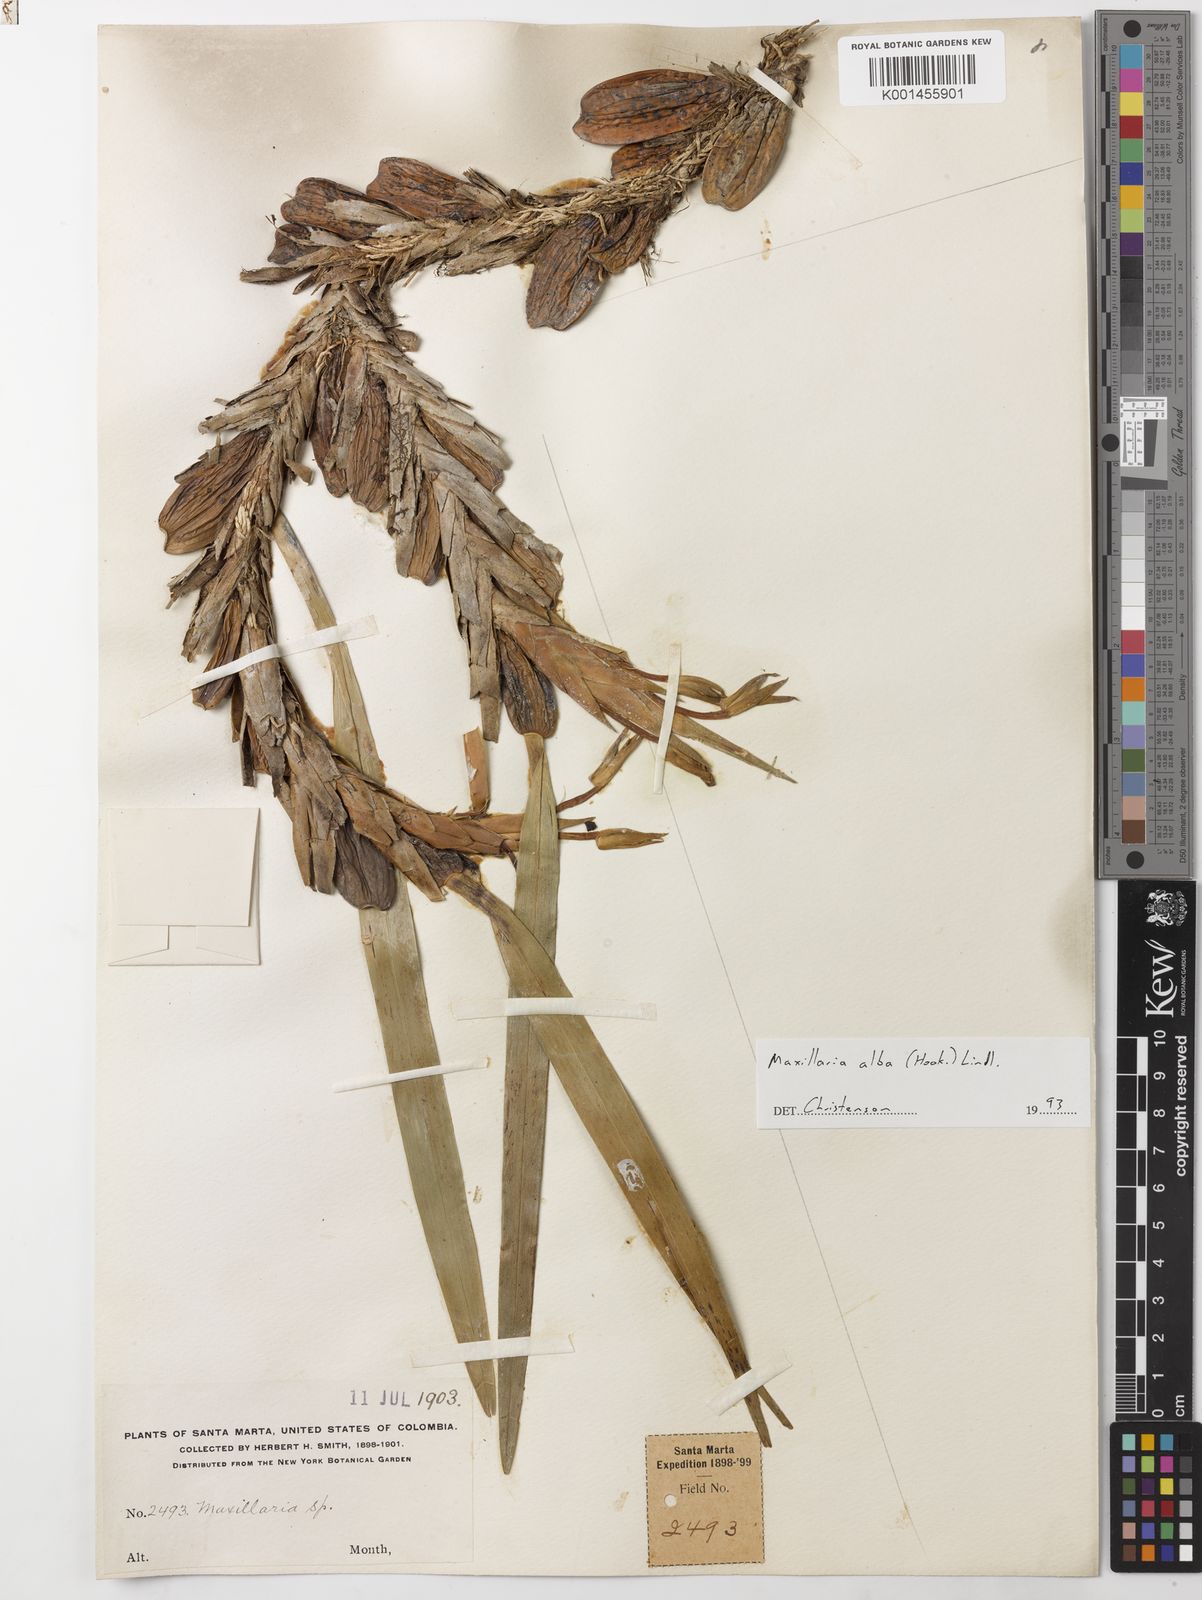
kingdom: Plantae
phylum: Tracheophyta
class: Liliopsida
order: Asparagales
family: Orchidaceae
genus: Maxillaria
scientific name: Maxillaria alba
